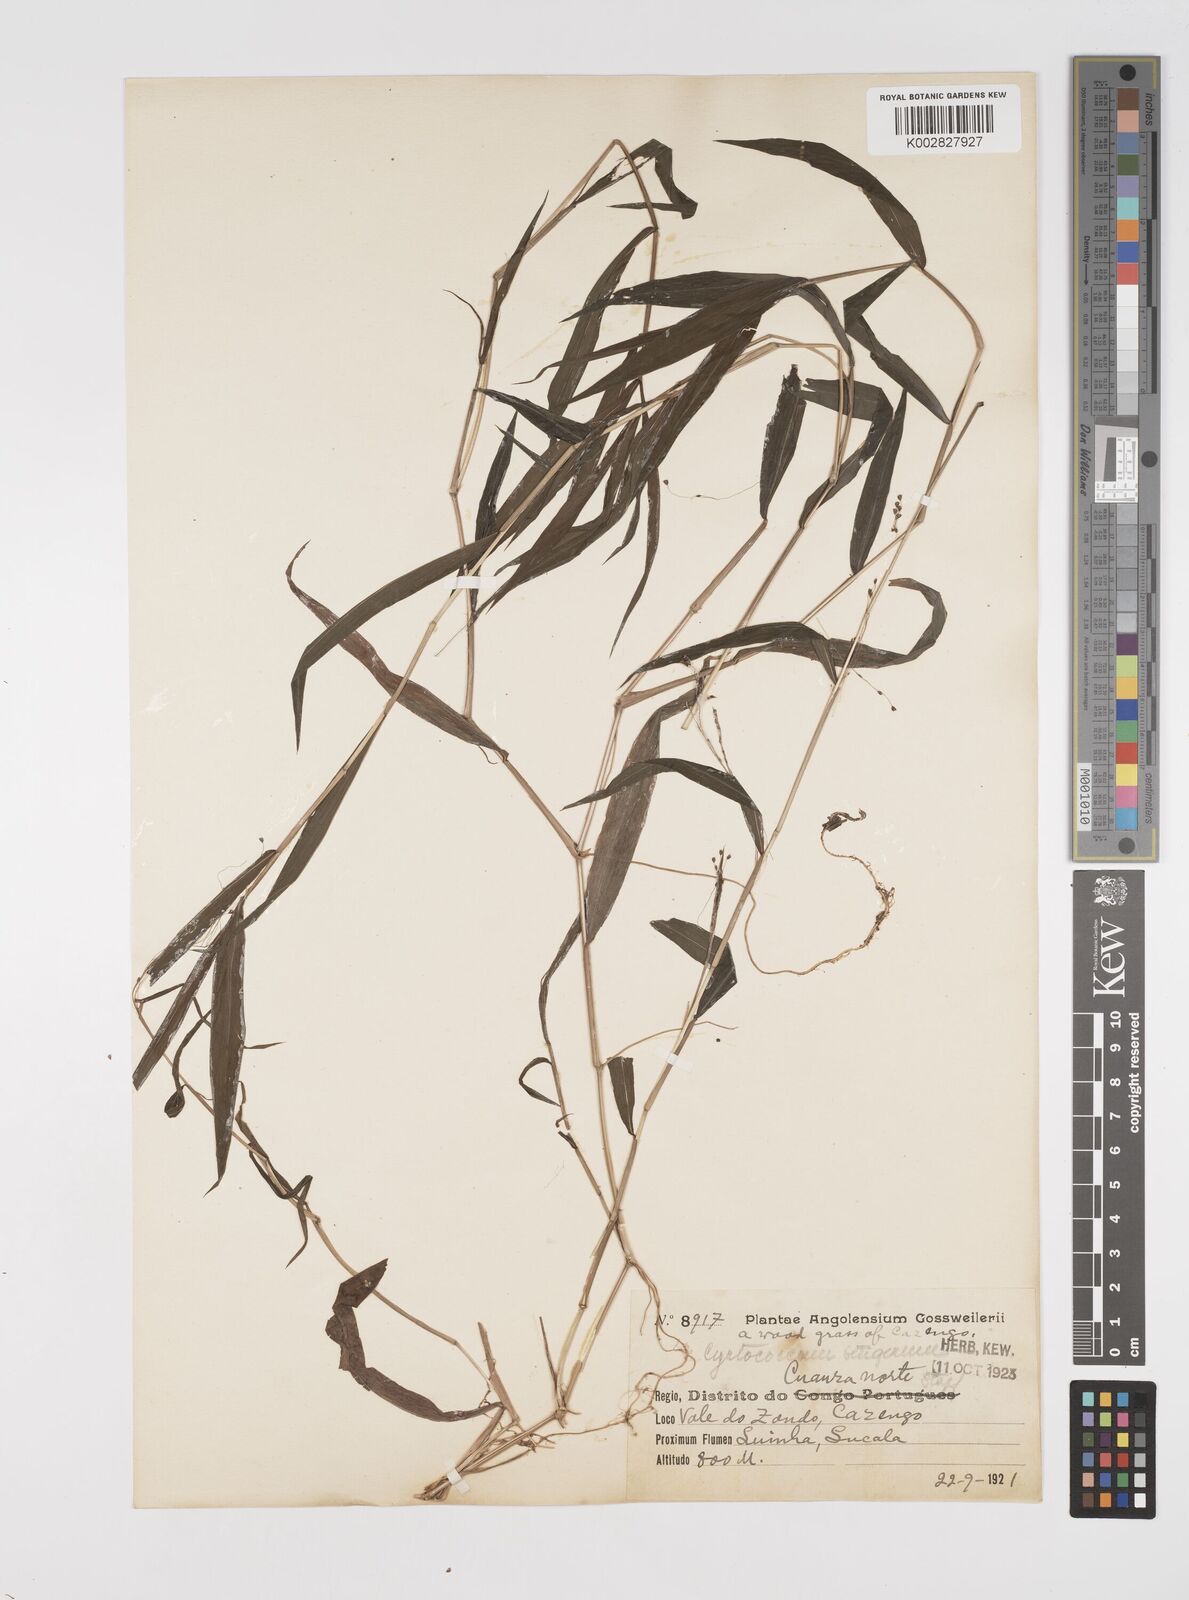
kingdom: Plantae
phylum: Tracheophyta
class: Liliopsida
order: Poales
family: Poaceae
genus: Cyrtococcum
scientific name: Cyrtococcum chaetophoron
